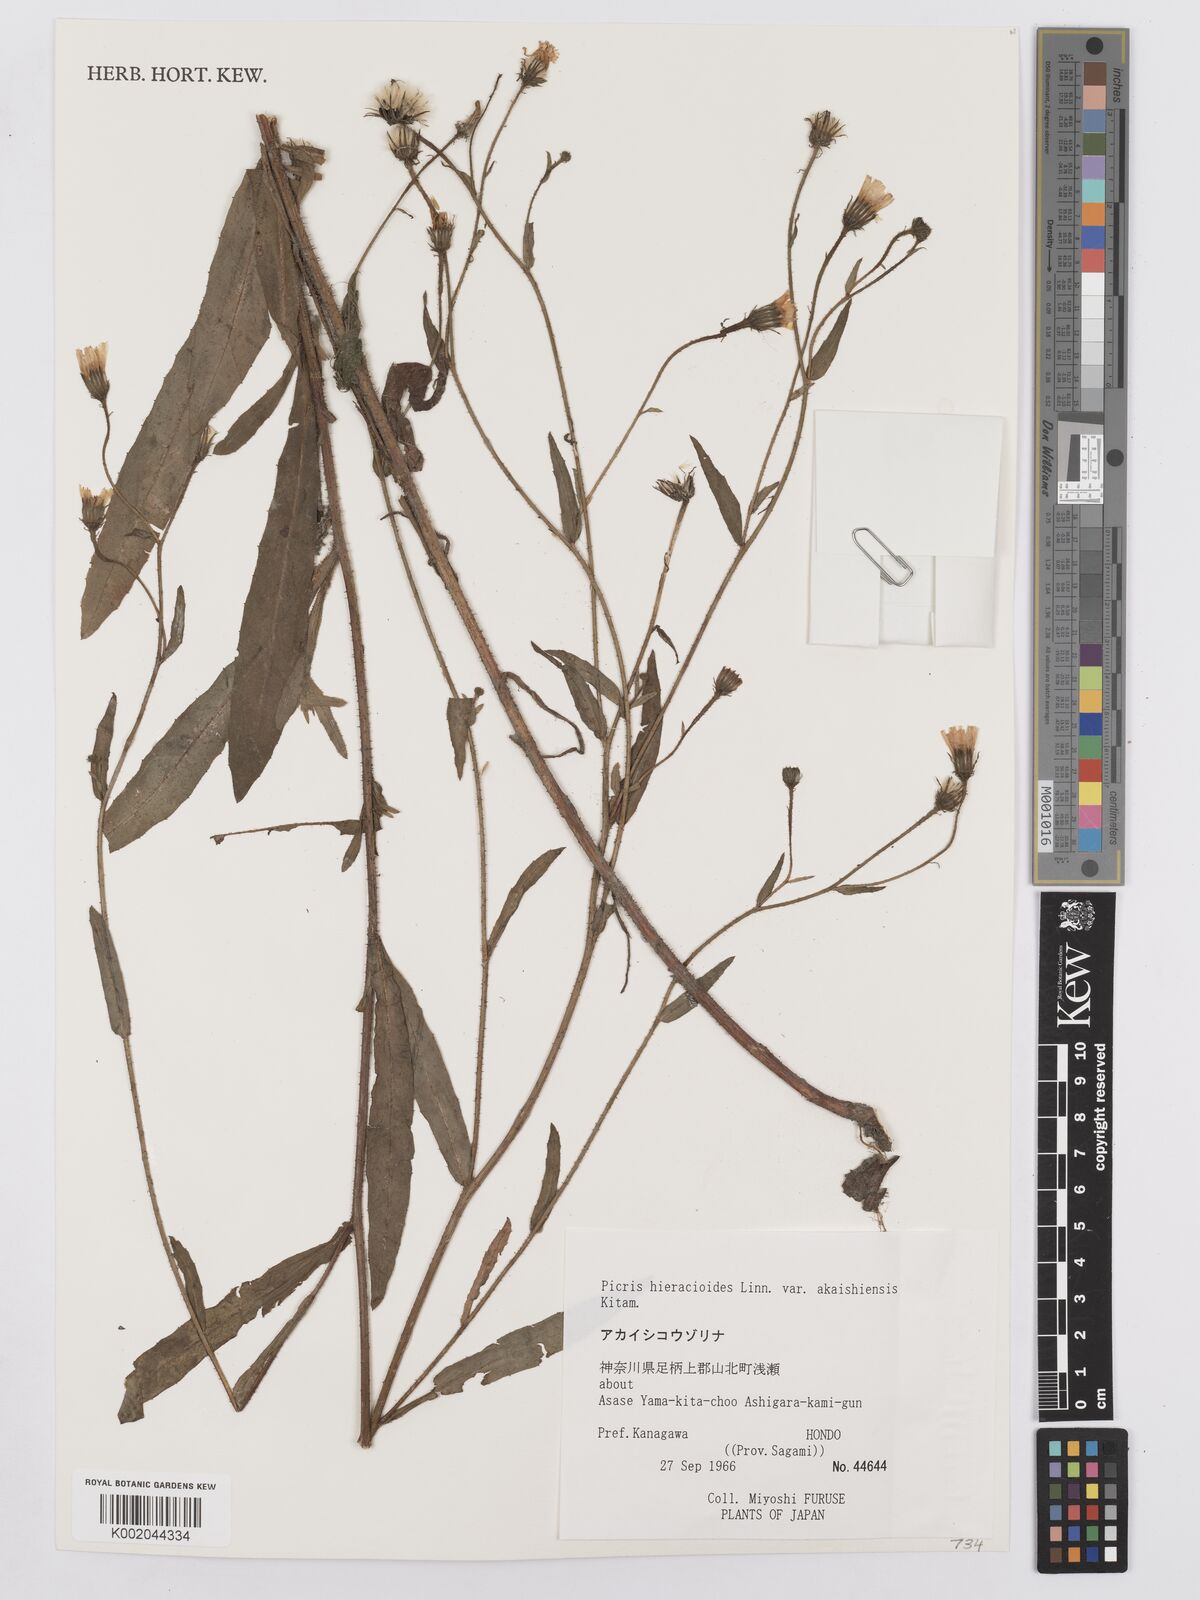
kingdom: Plantae
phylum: Tracheophyta
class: Magnoliopsida
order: Asterales
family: Asteraceae
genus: Picris
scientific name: Picris hieracioides
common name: Hawkweed oxtongue
